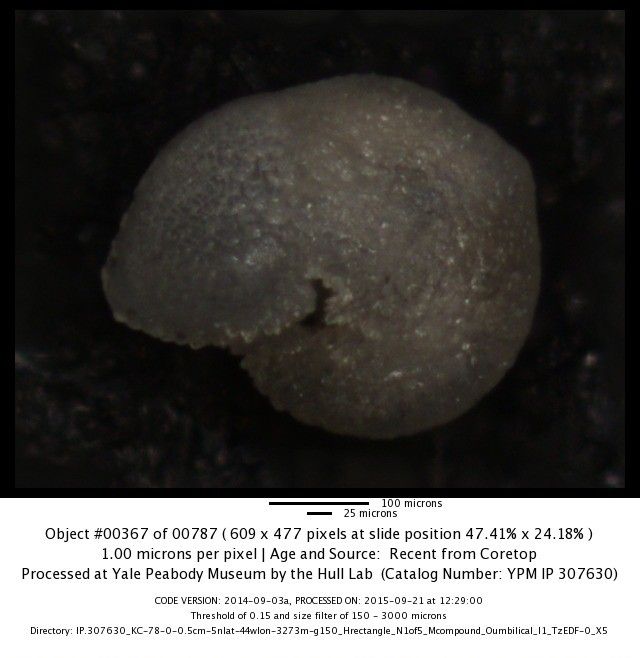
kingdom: Chromista
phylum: Foraminifera
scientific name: Foraminifera
